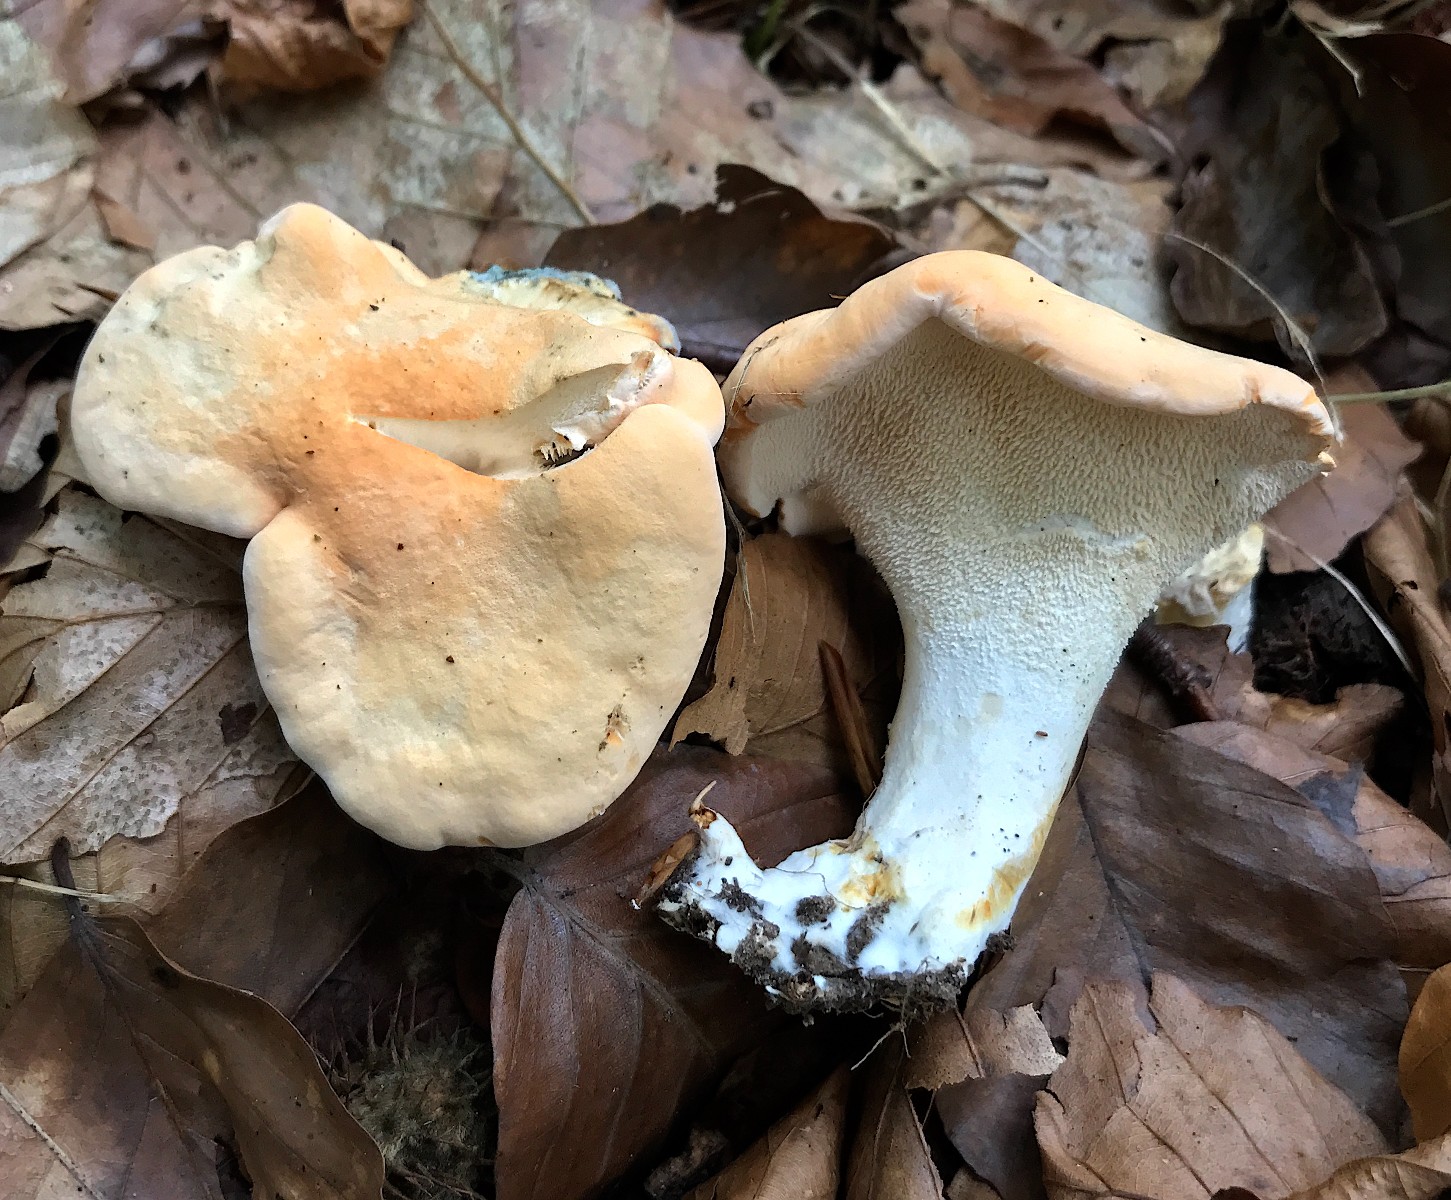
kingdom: Fungi
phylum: Basidiomycota
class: Agaricomycetes
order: Cantharellales
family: Hydnaceae
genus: Hydnum
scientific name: Hydnum repandum
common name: almindelig pigsvamp
